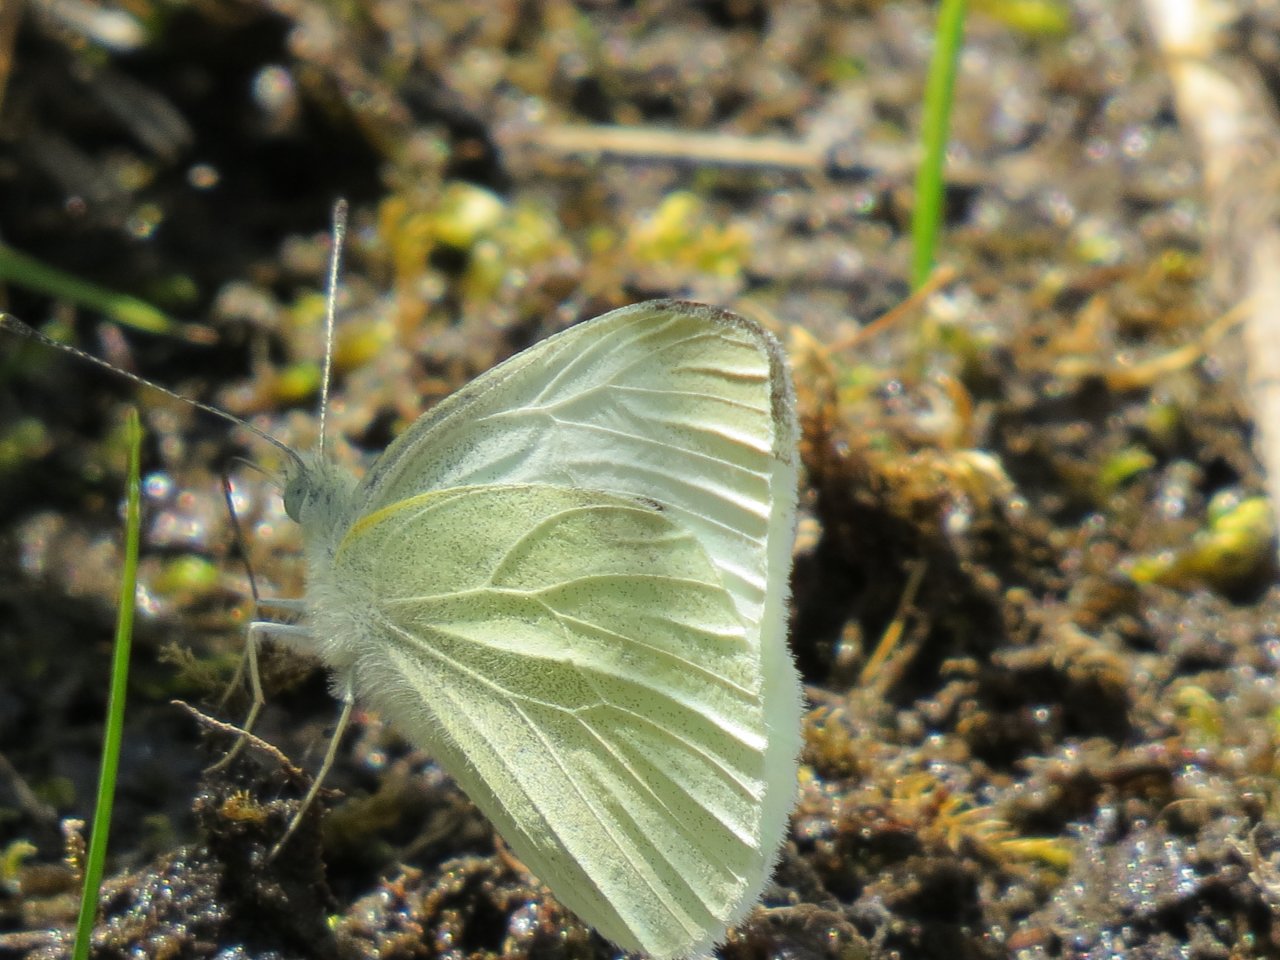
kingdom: Animalia
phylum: Arthropoda
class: Insecta
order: Lepidoptera
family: Pieridae
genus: Pieris
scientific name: Pieris rapae
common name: Cabbage White
